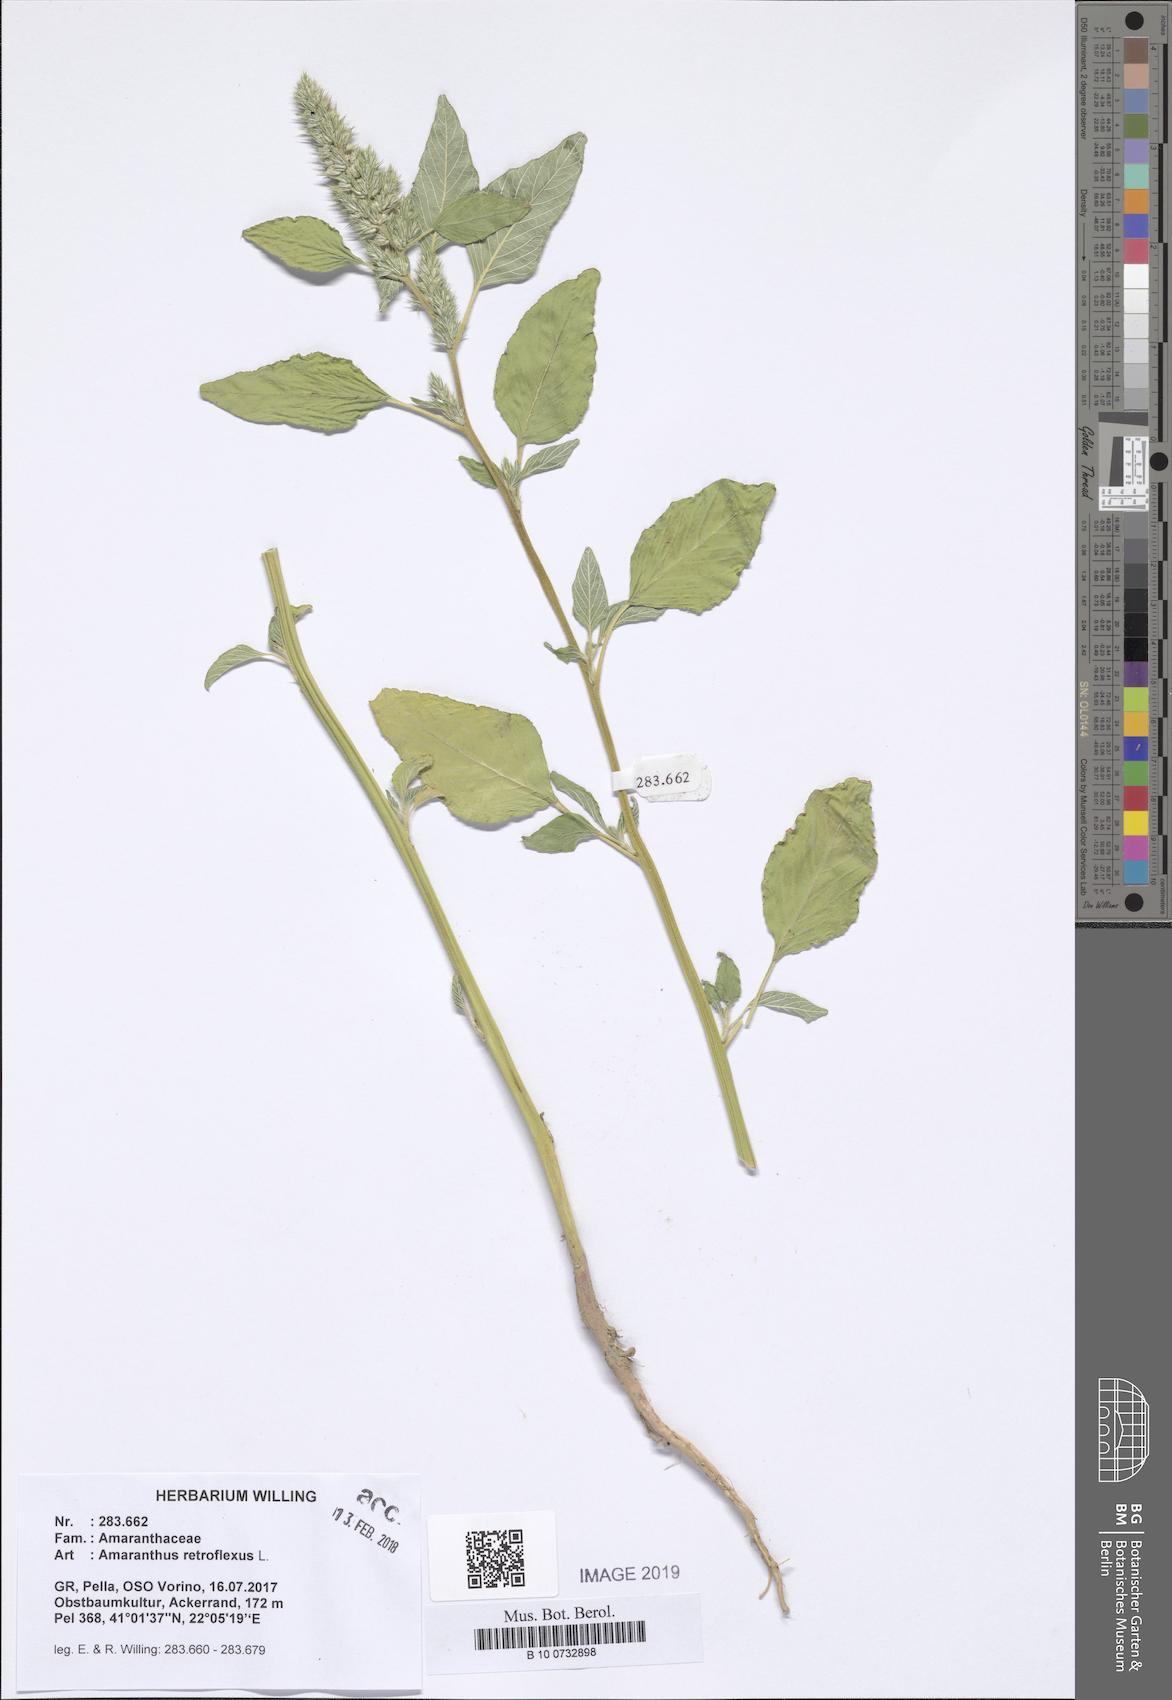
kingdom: Plantae
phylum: Tracheophyta
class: Magnoliopsida
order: Caryophyllales
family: Amaranthaceae
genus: Amaranthus
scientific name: Amaranthus retroflexus
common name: Redroot amaranth
